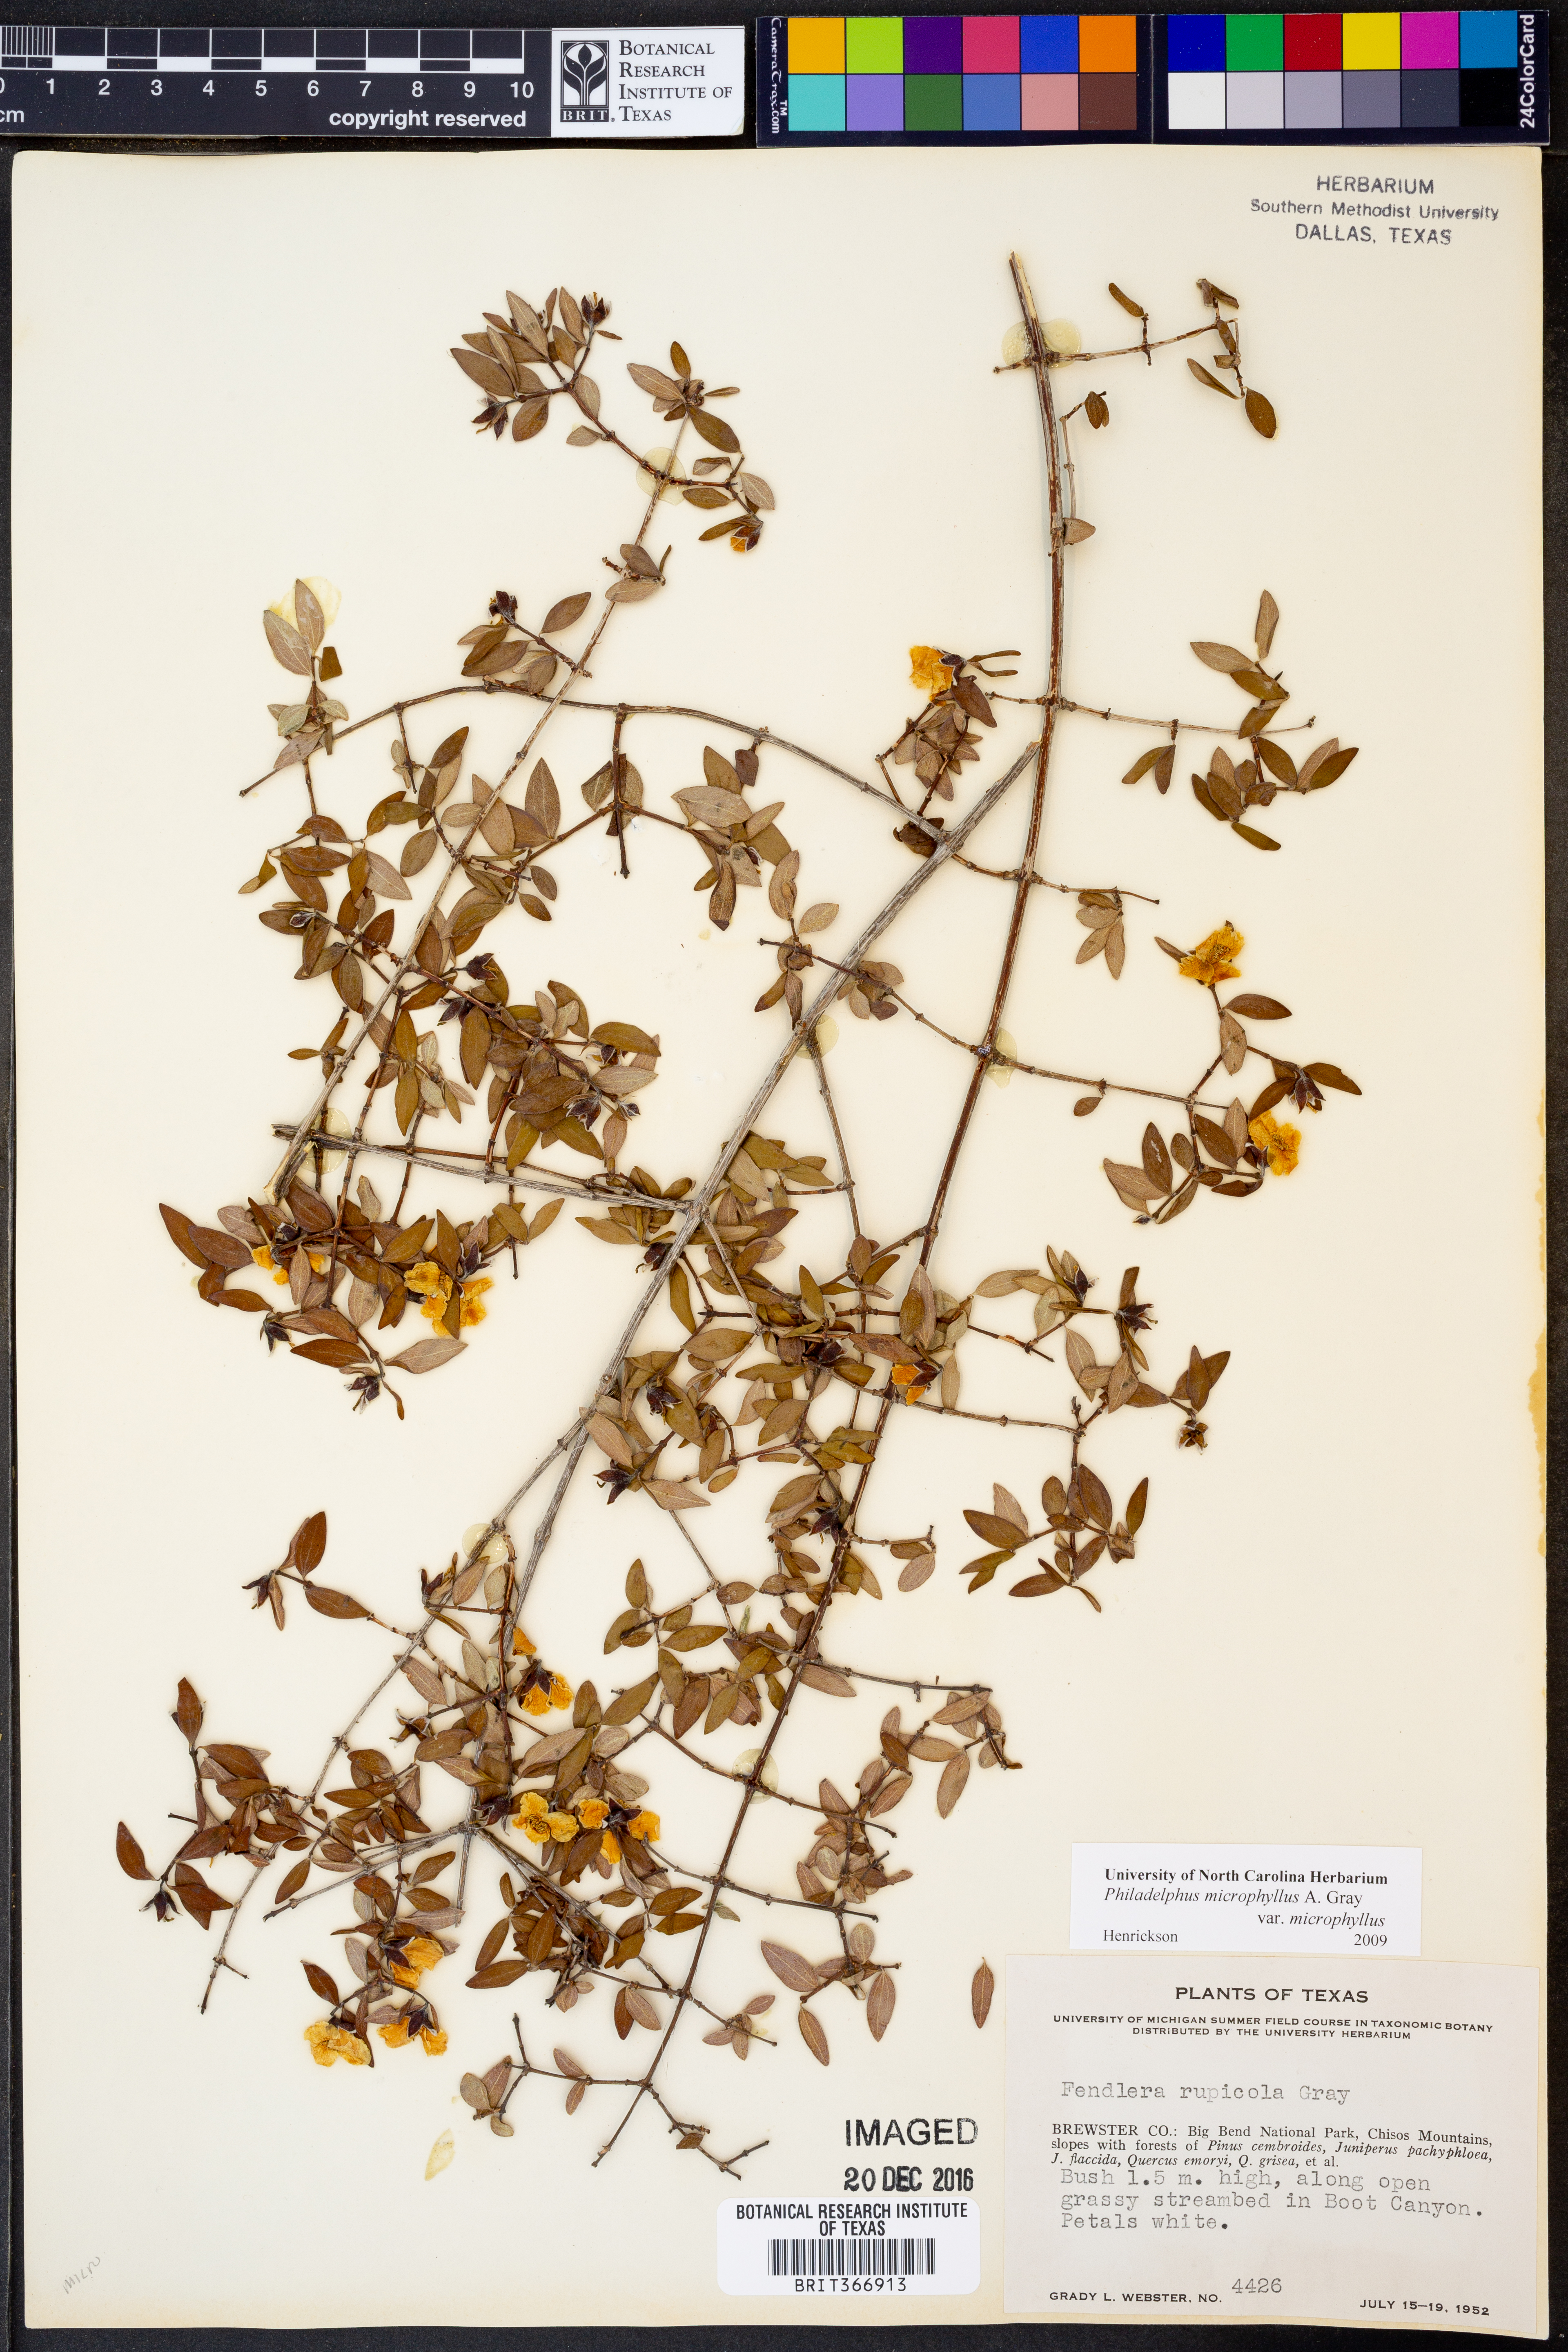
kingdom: Plantae
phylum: Tracheophyta
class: Magnoliopsida
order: Cornales
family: Hydrangeaceae
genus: Philadelphus
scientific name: Philadelphus microphyllus
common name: Desert mock orange
